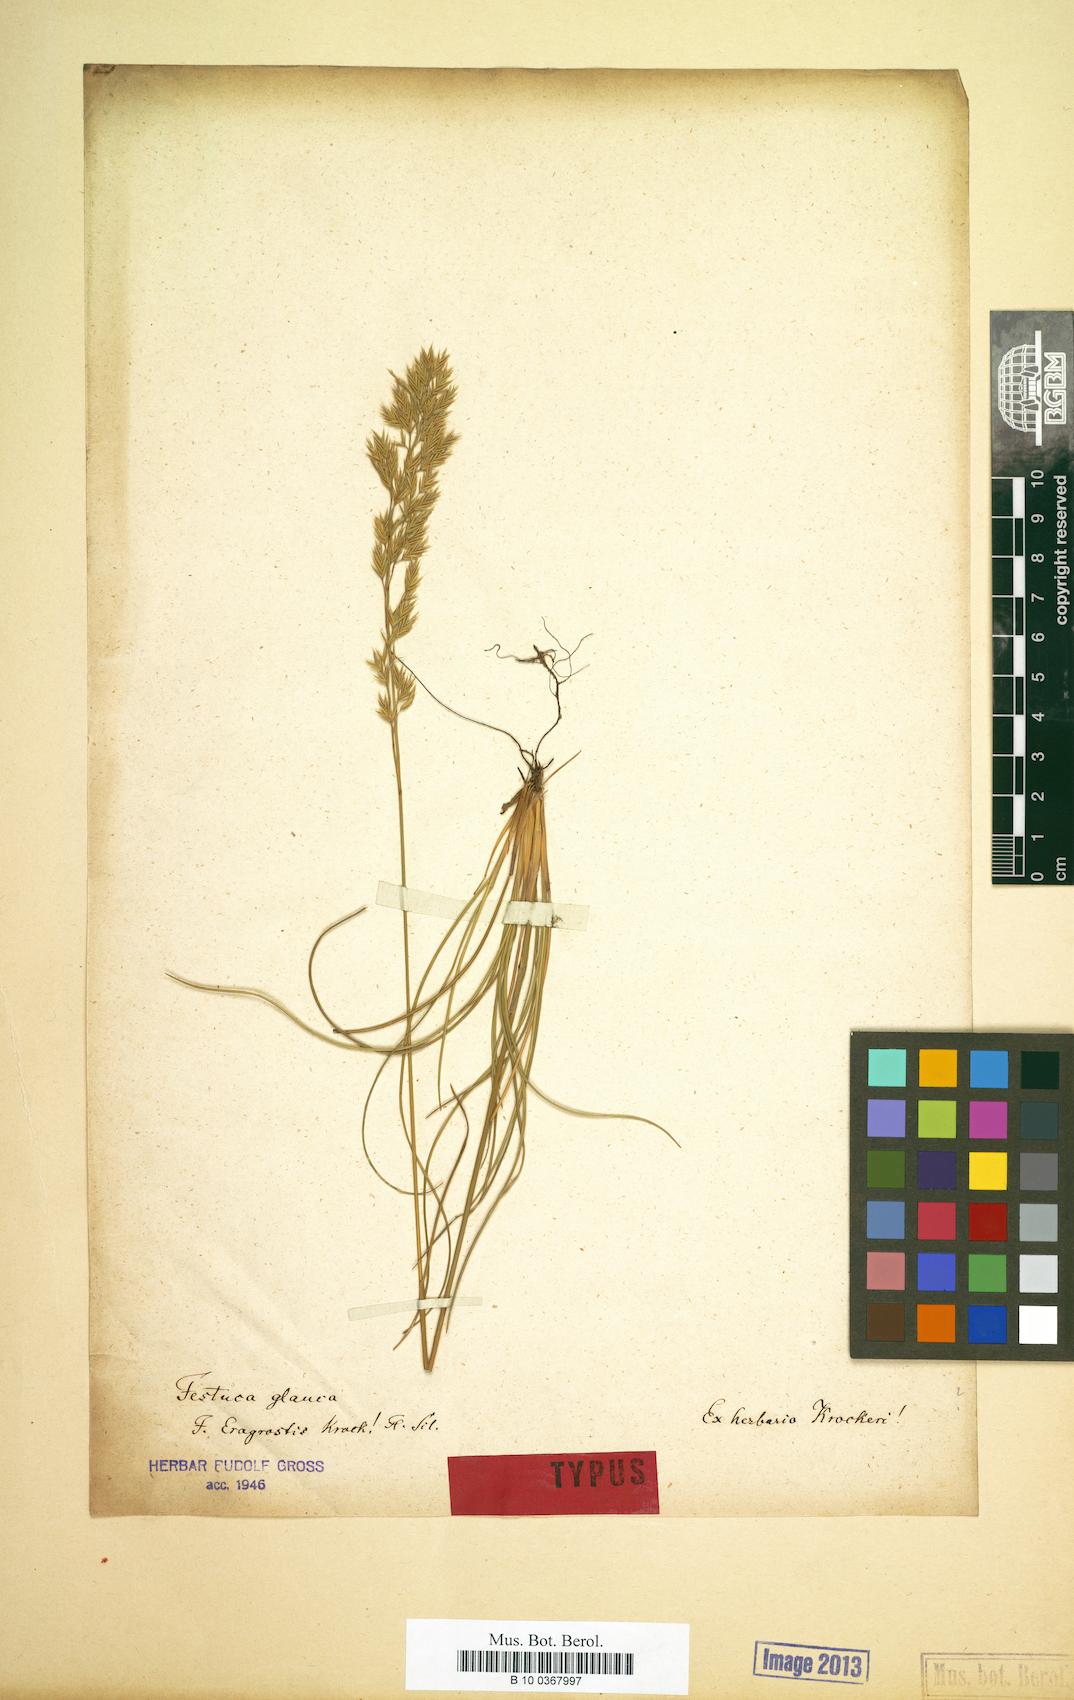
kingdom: Plantae
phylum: Tracheophyta
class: Liliopsida
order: Poales
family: Poaceae
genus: Festuca
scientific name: Festuca glauca
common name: Blue fescue
